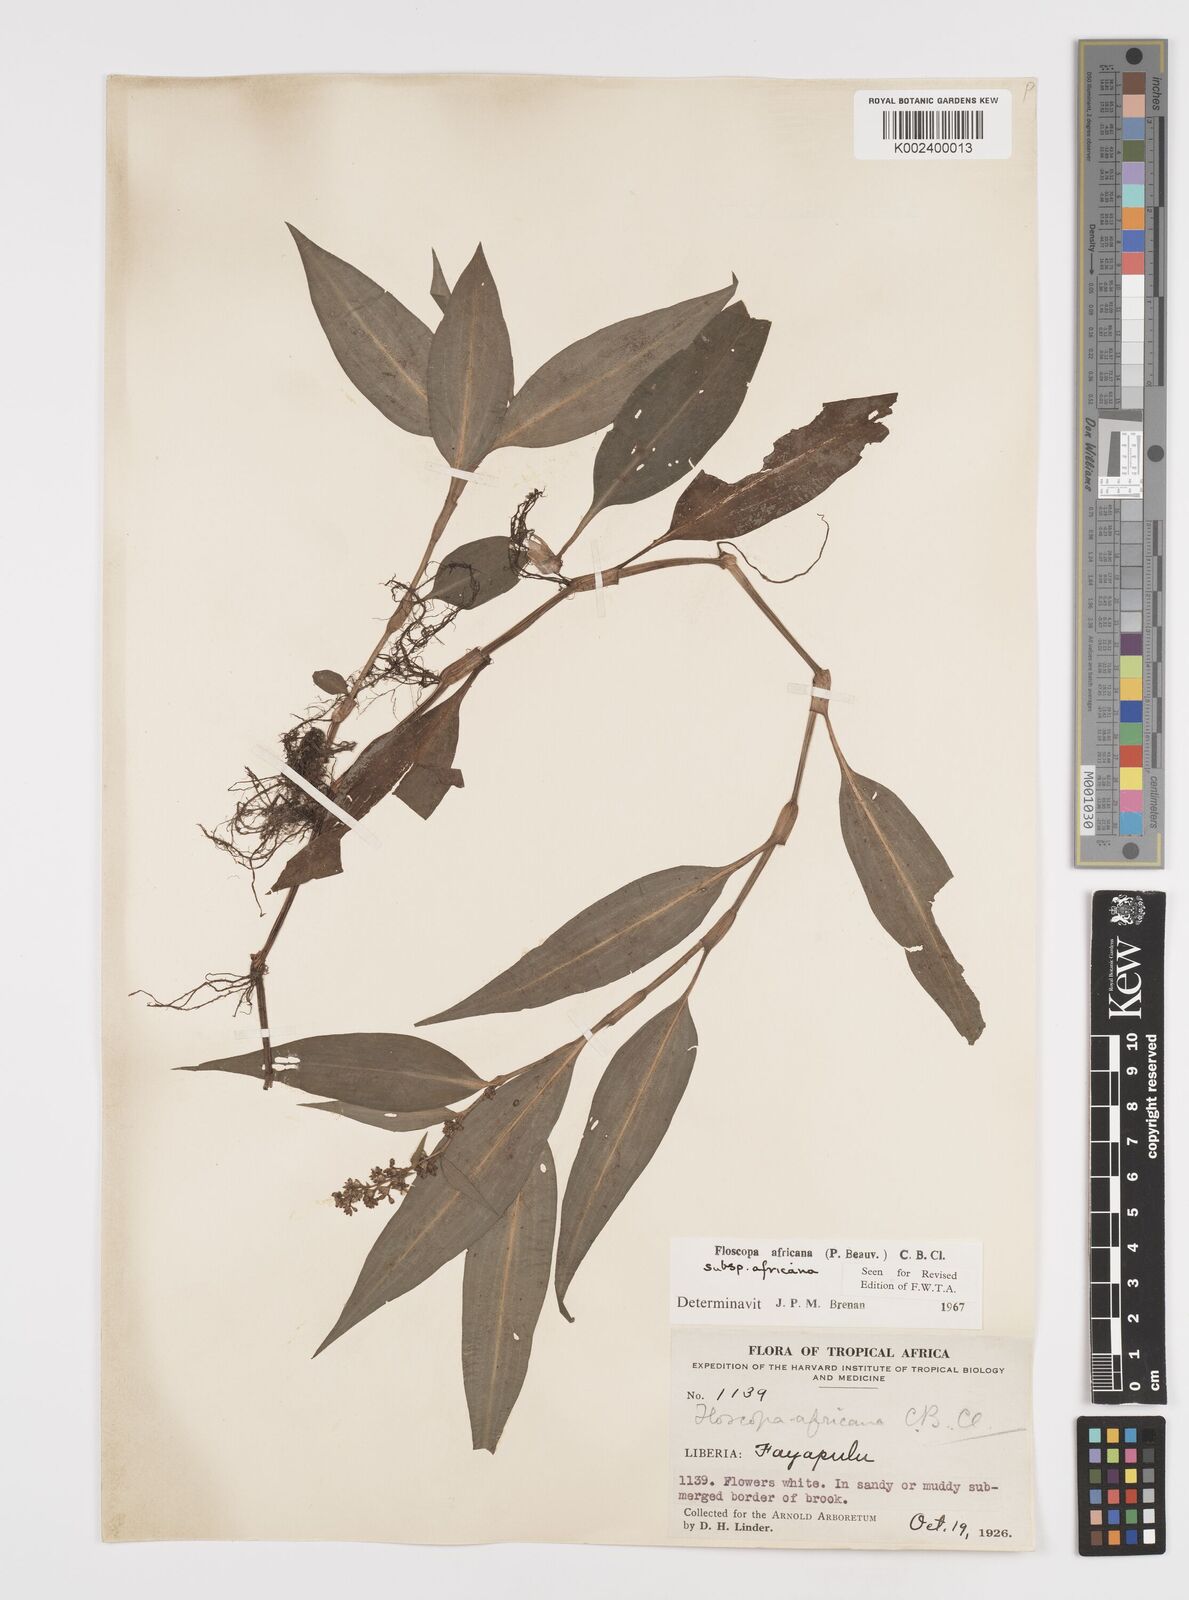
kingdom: Plantae
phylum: Tracheophyta
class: Liliopsida
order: Commelinales
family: Commelinaceae
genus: Floscopa
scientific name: Floscopa africana
